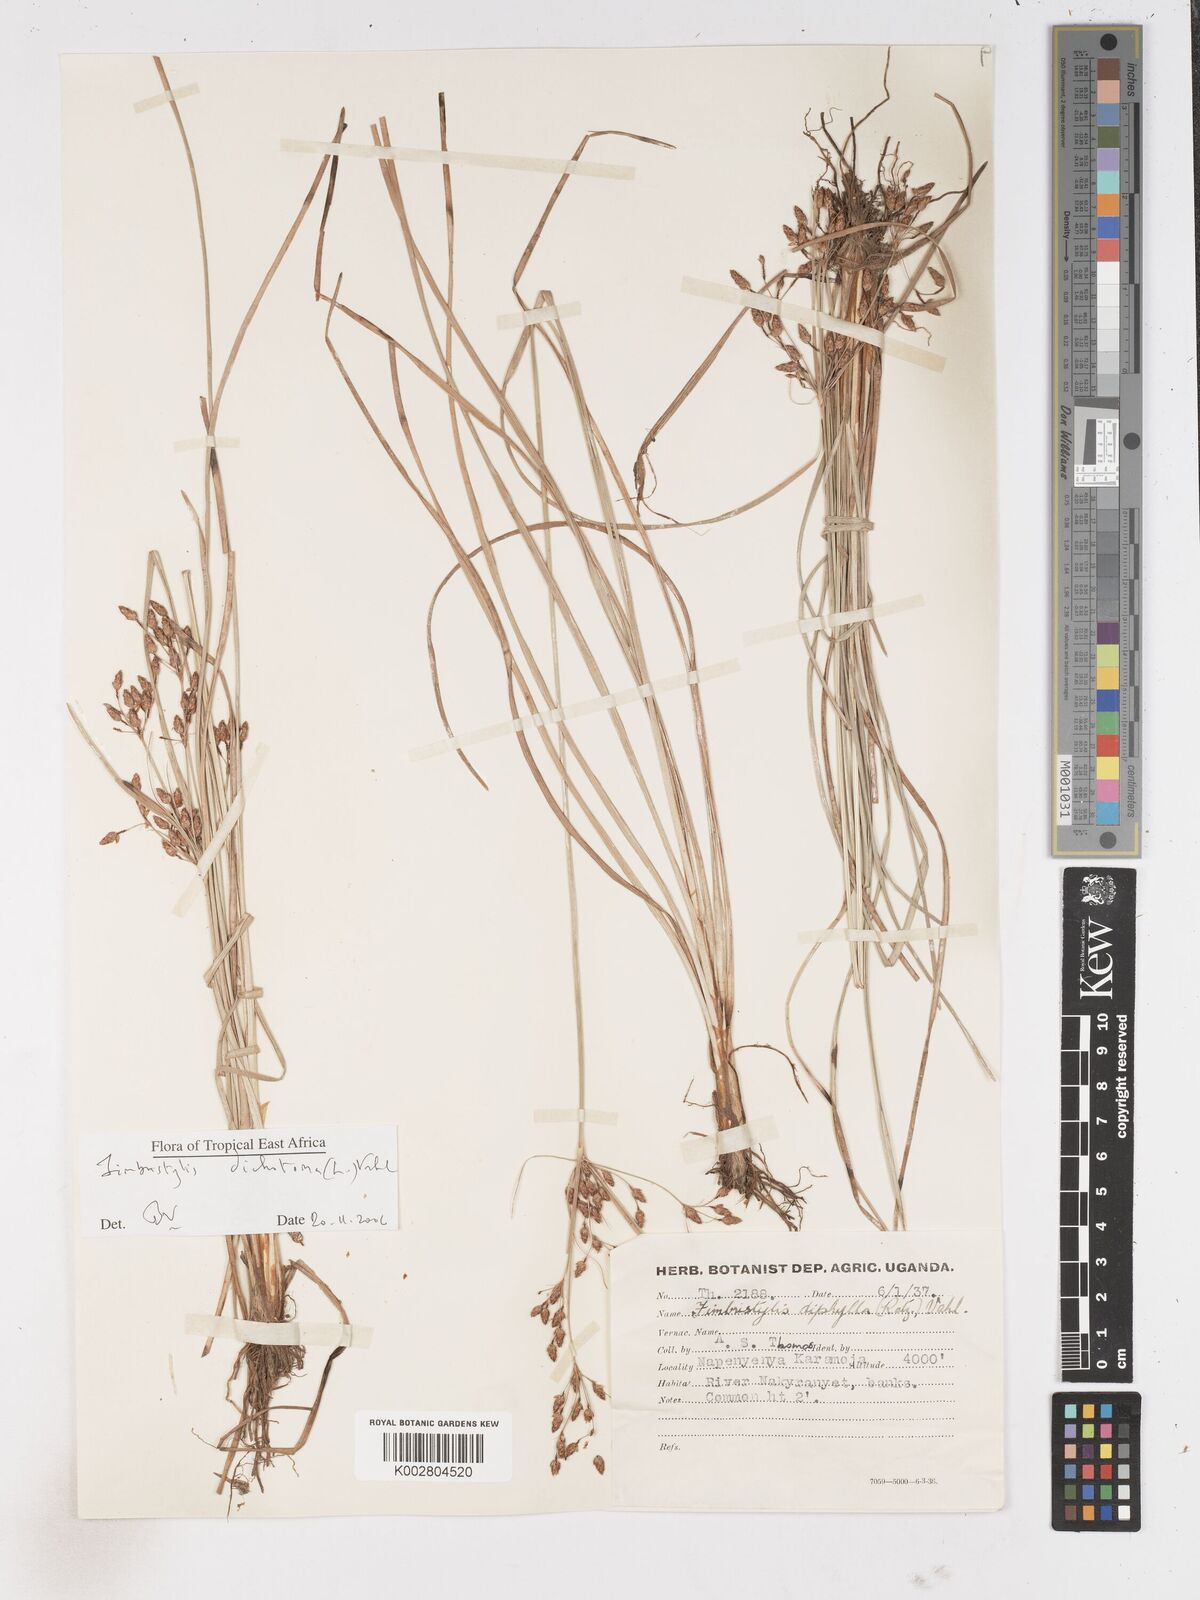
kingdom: Plantae
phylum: Tracheophyta
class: Liliopsida
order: Poales
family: Cyperaceae
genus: Fimbristylis
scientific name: Fimbristylis dichotoma
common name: Forked fimbry
